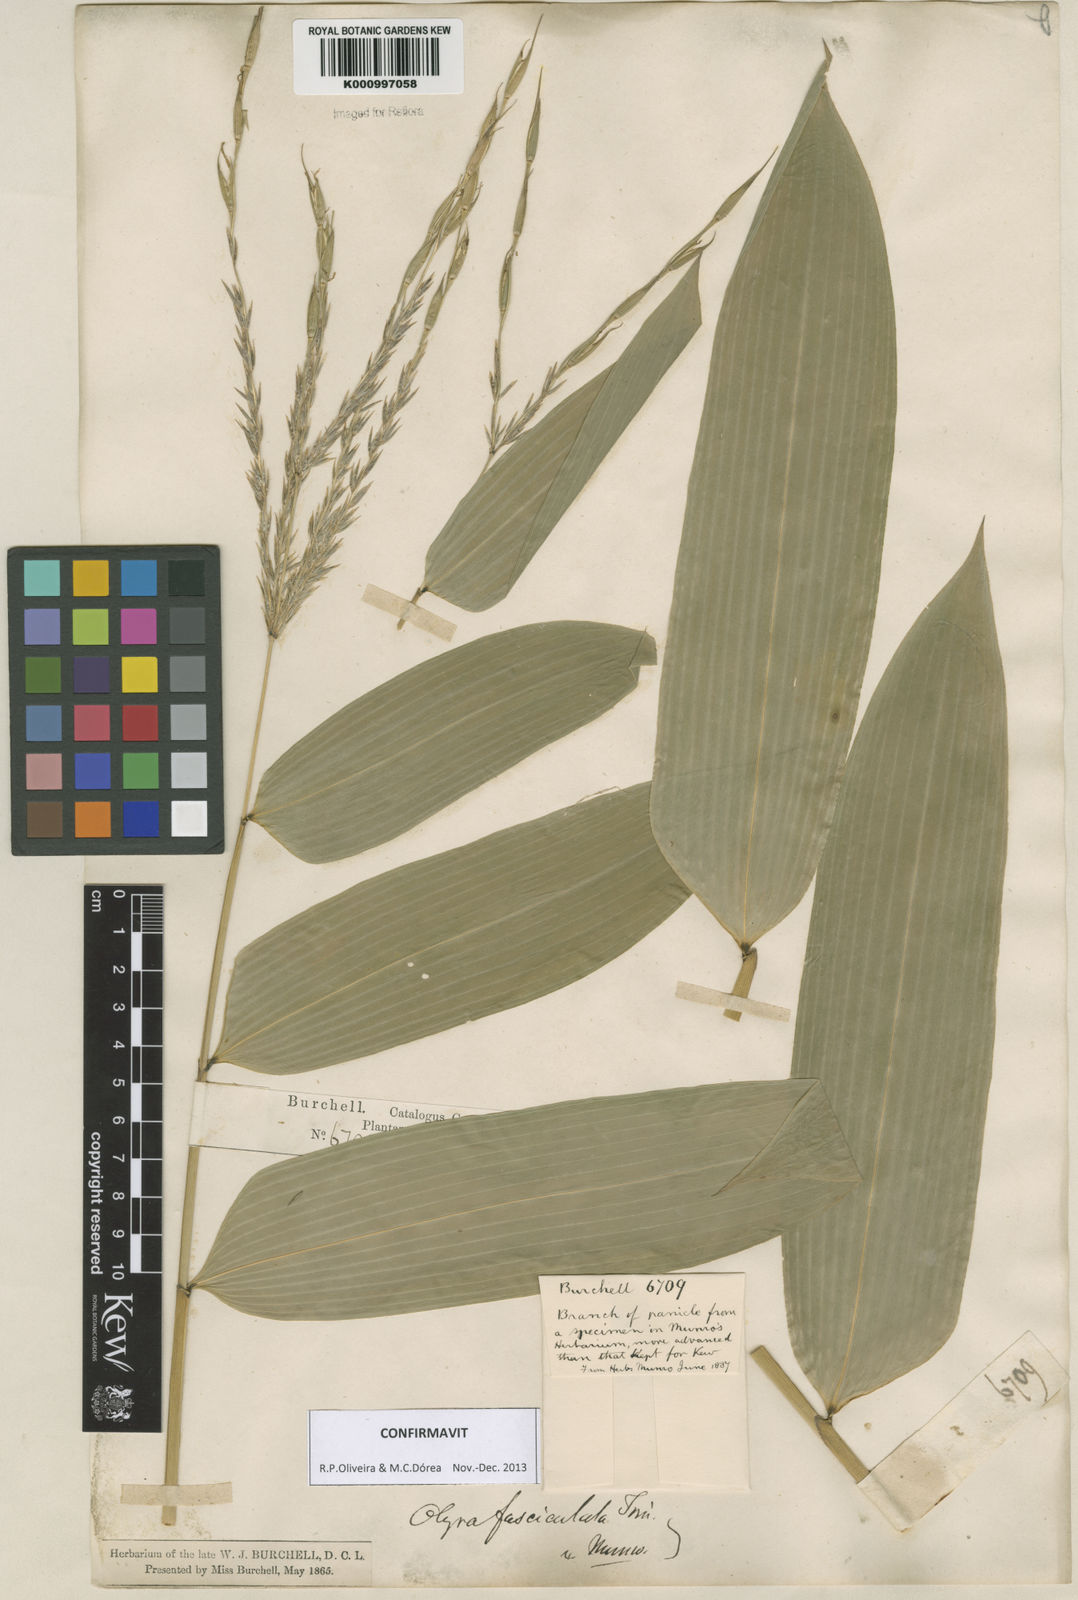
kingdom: Plantae
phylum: Tracheophyta
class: Liliopsida
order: Poales
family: Poaceae
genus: Olyra
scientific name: Olyra fasciculata
